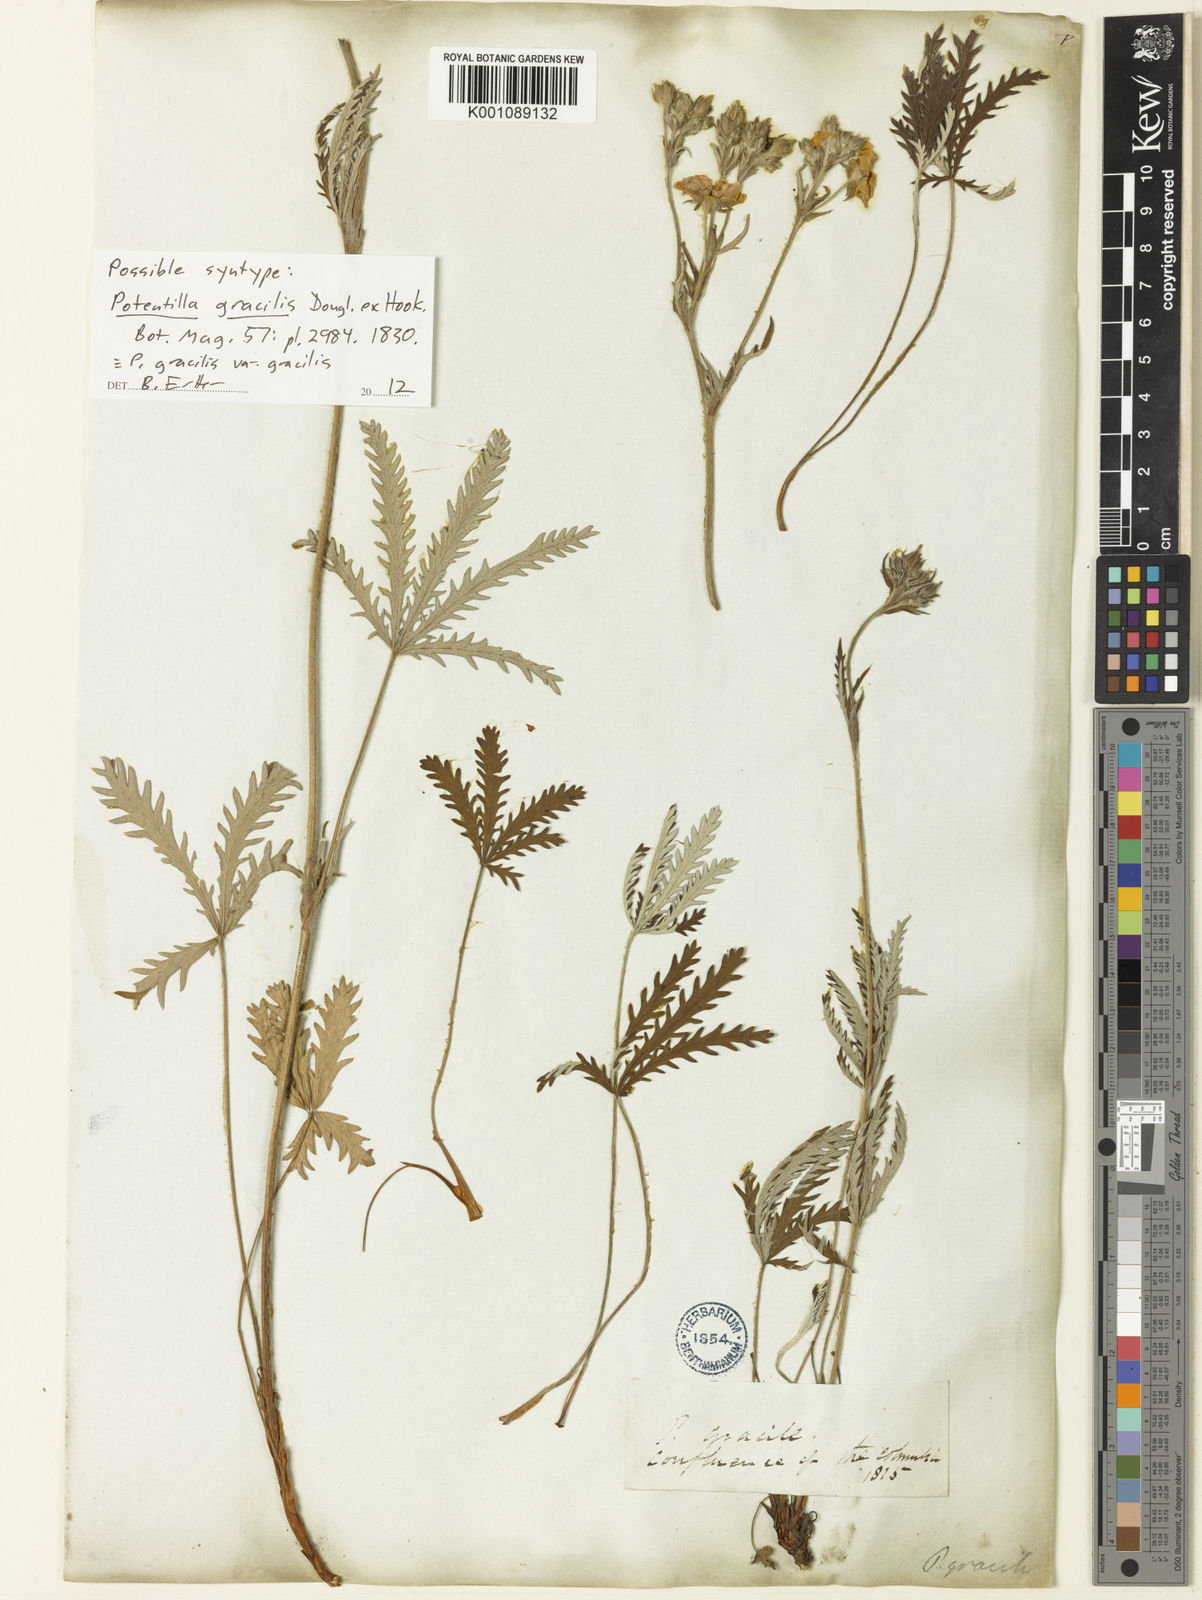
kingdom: Plantae
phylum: Tracheophyta
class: Magnoliopsida
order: Rosales
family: Rosaceae
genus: Potentilla
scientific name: Potentilla gracilis
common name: Graceful cinquefoil
